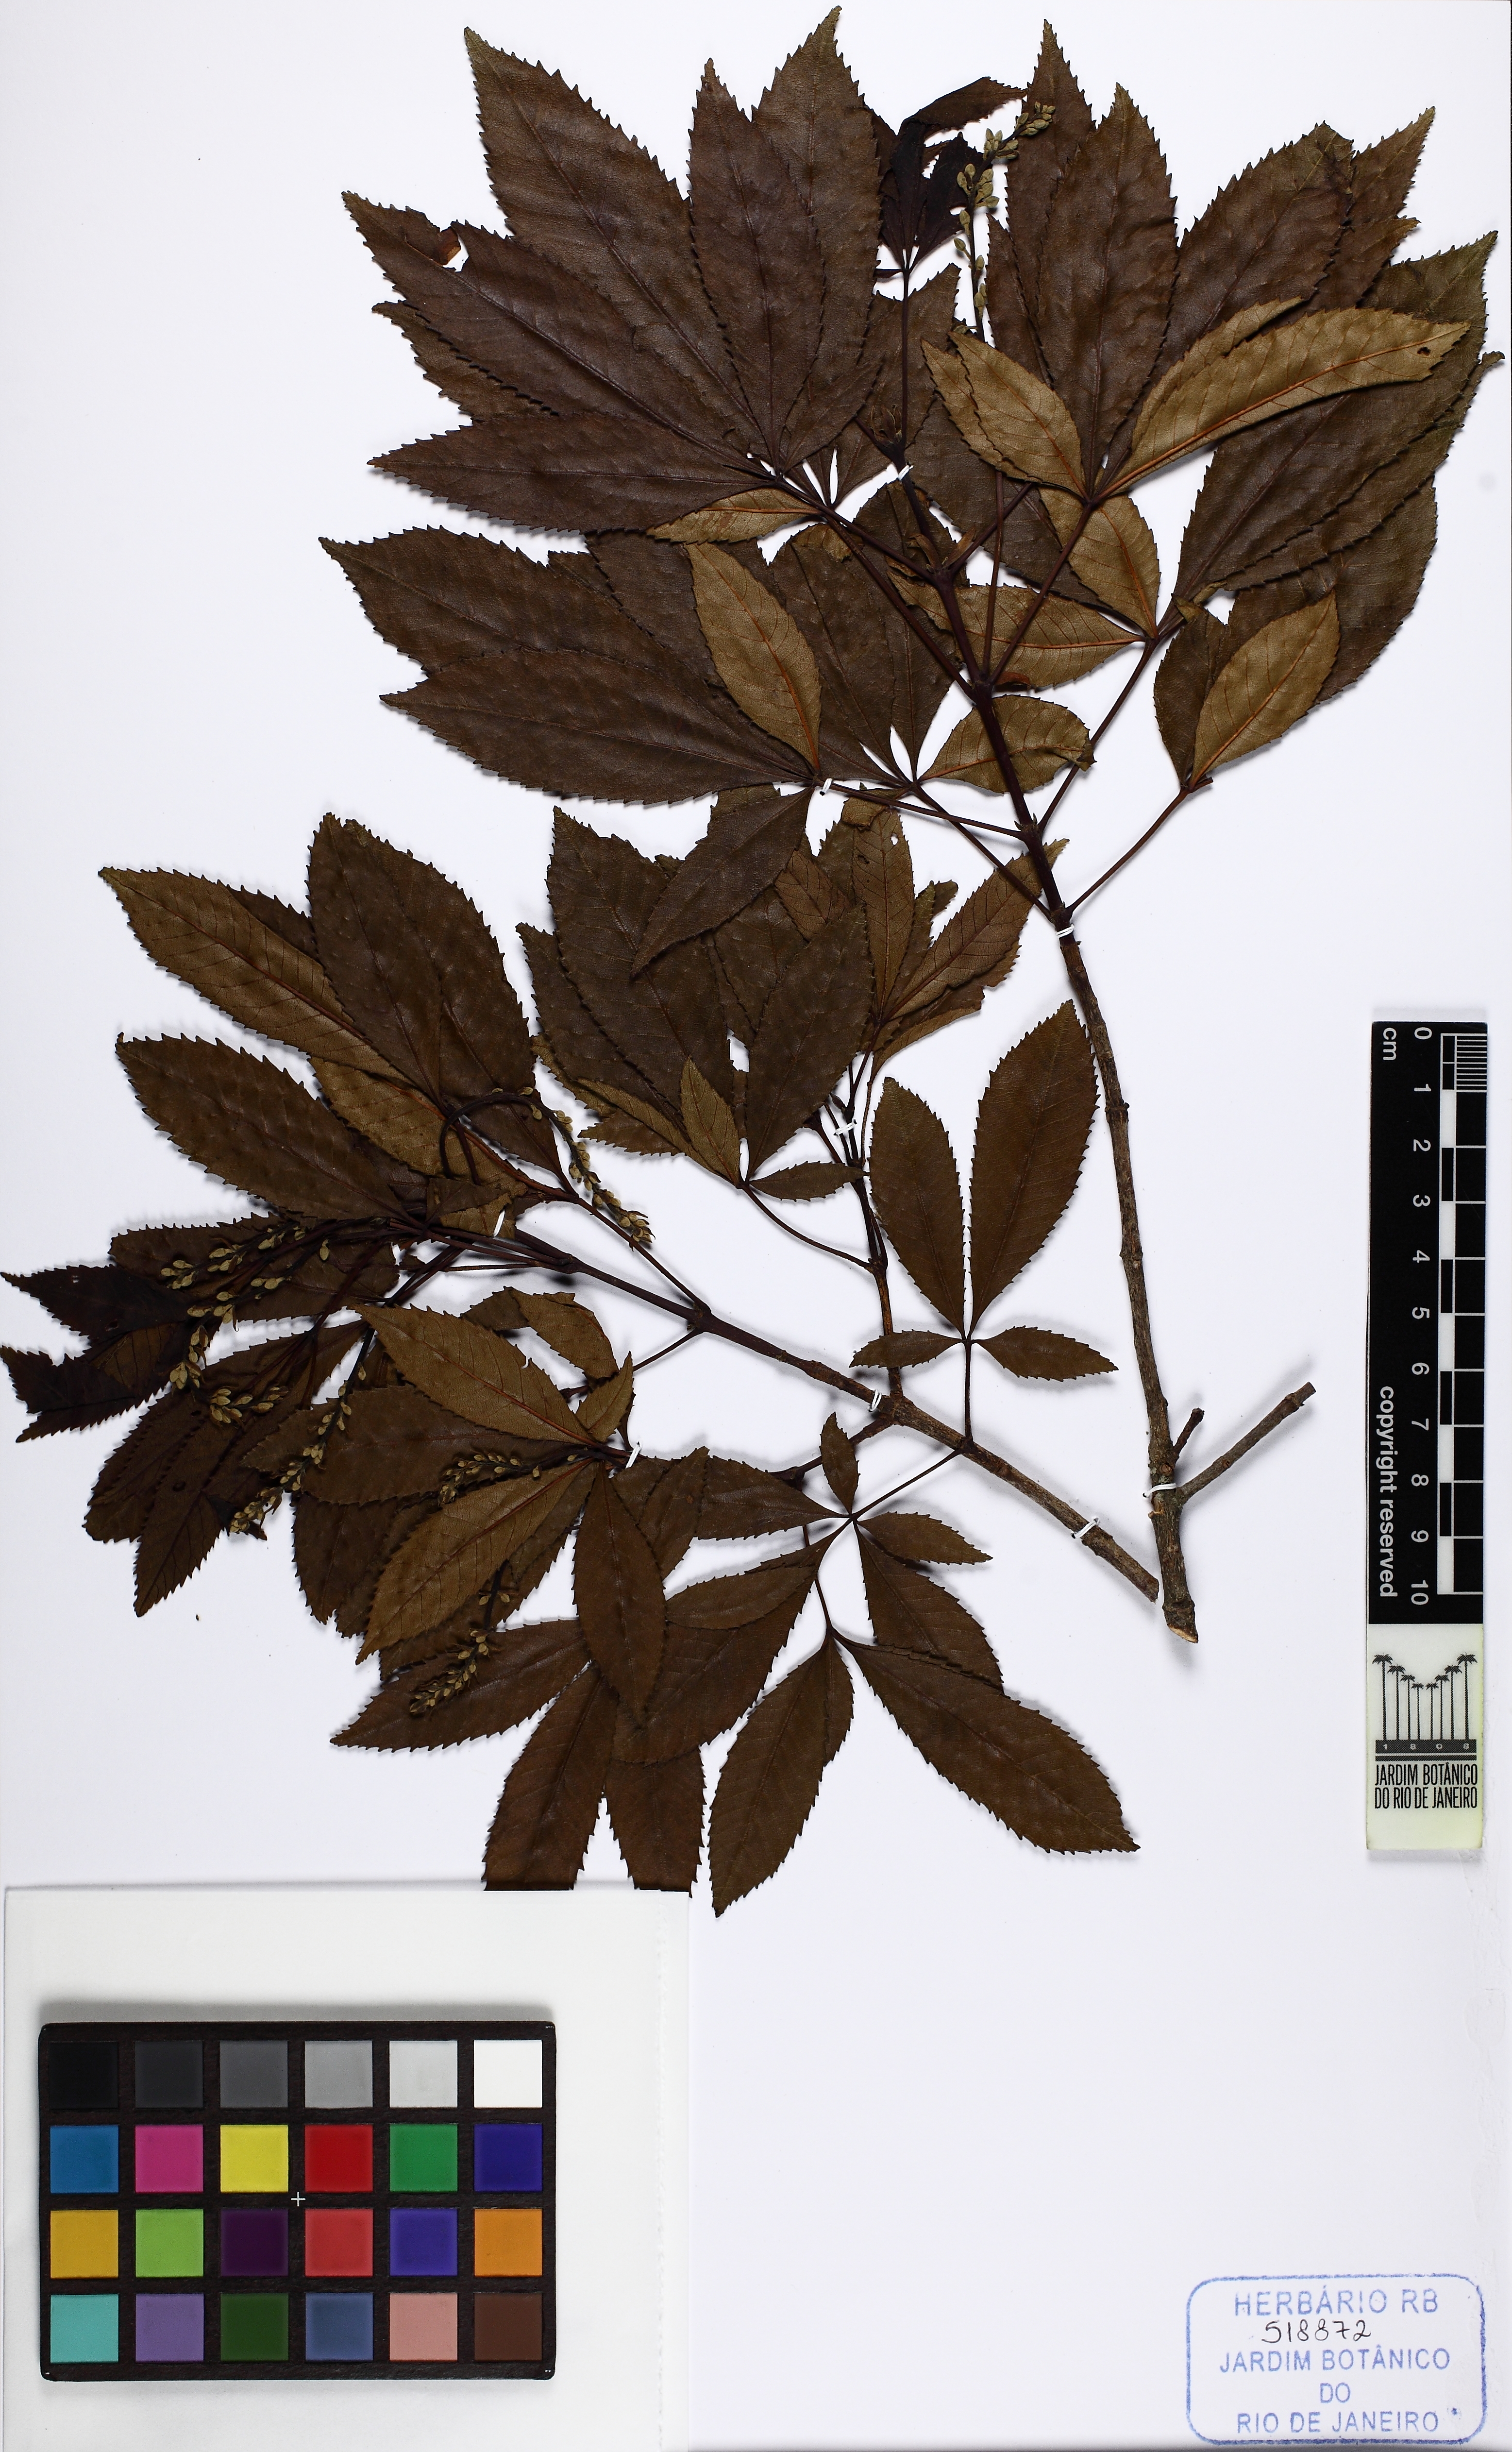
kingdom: Plantae
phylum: Tracheophyta
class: Magnoliopsida
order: Oxalidales
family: Cunoniaceae
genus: Lamanonia
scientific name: Lamanonia ternata
